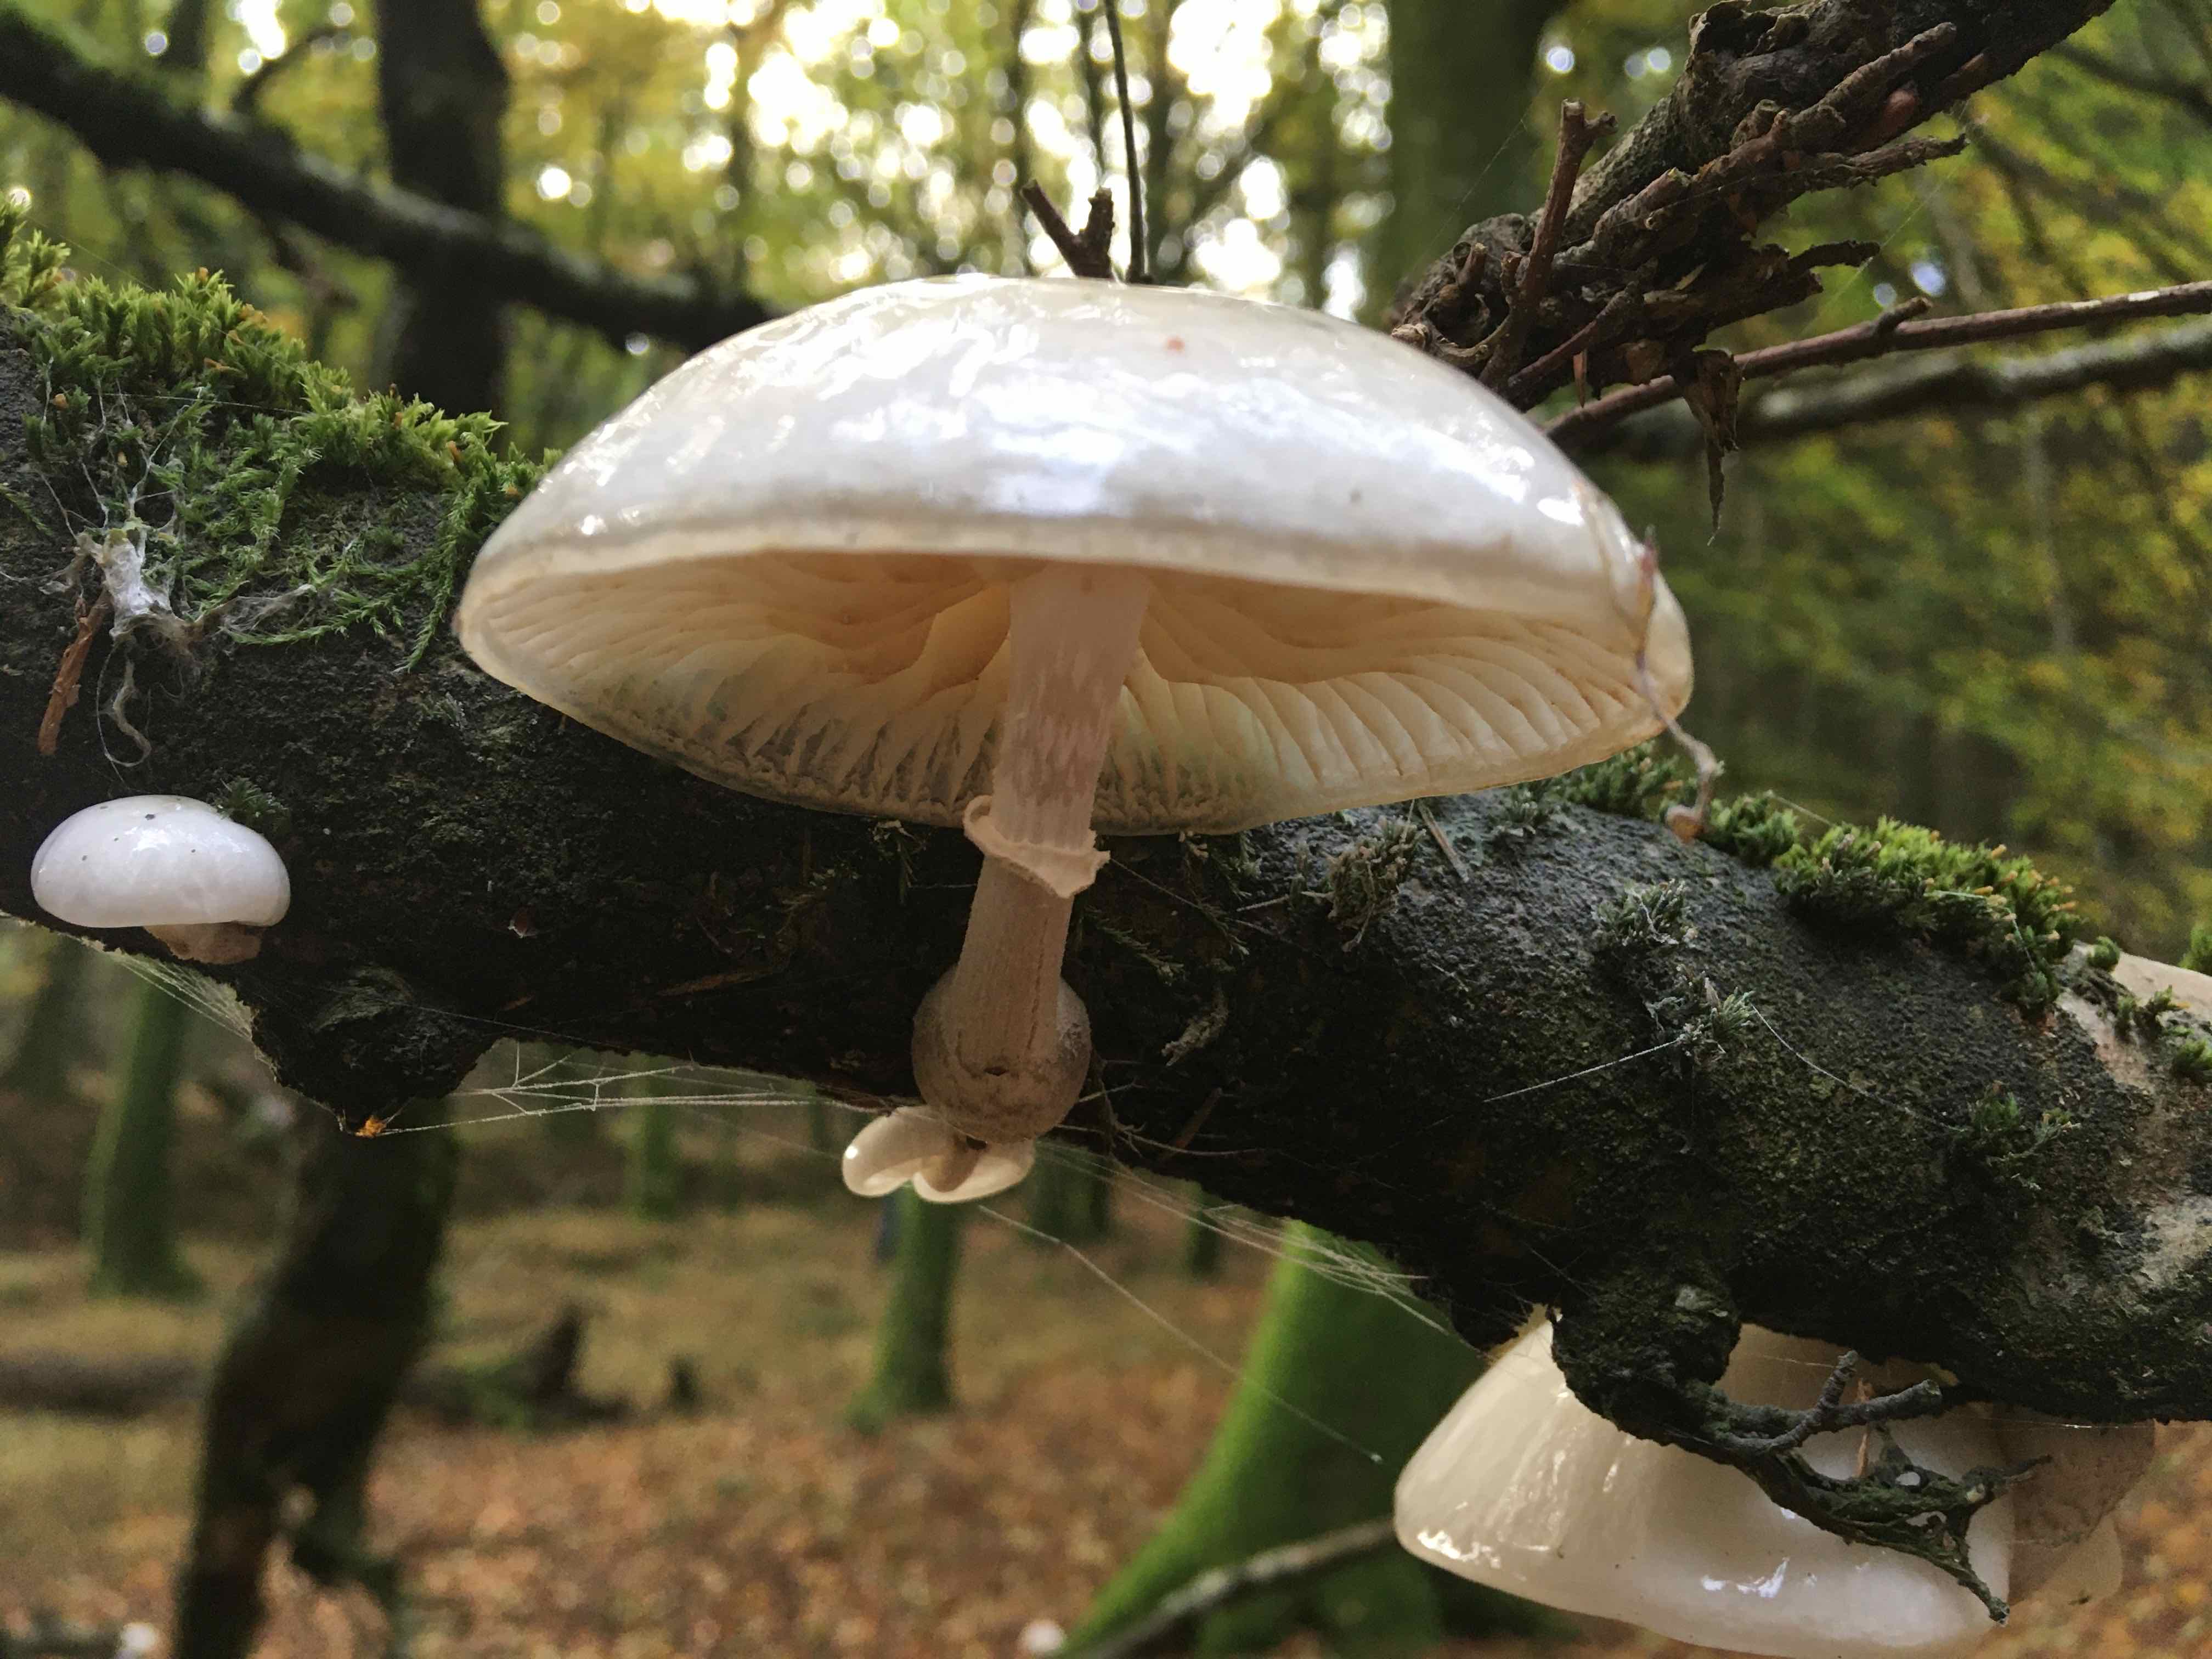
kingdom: Fungi
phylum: Basidiomycota
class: Agaricomycetes
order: Agaricales
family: Physalacriaceae
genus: Mucidula
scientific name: Mucidula mucida
